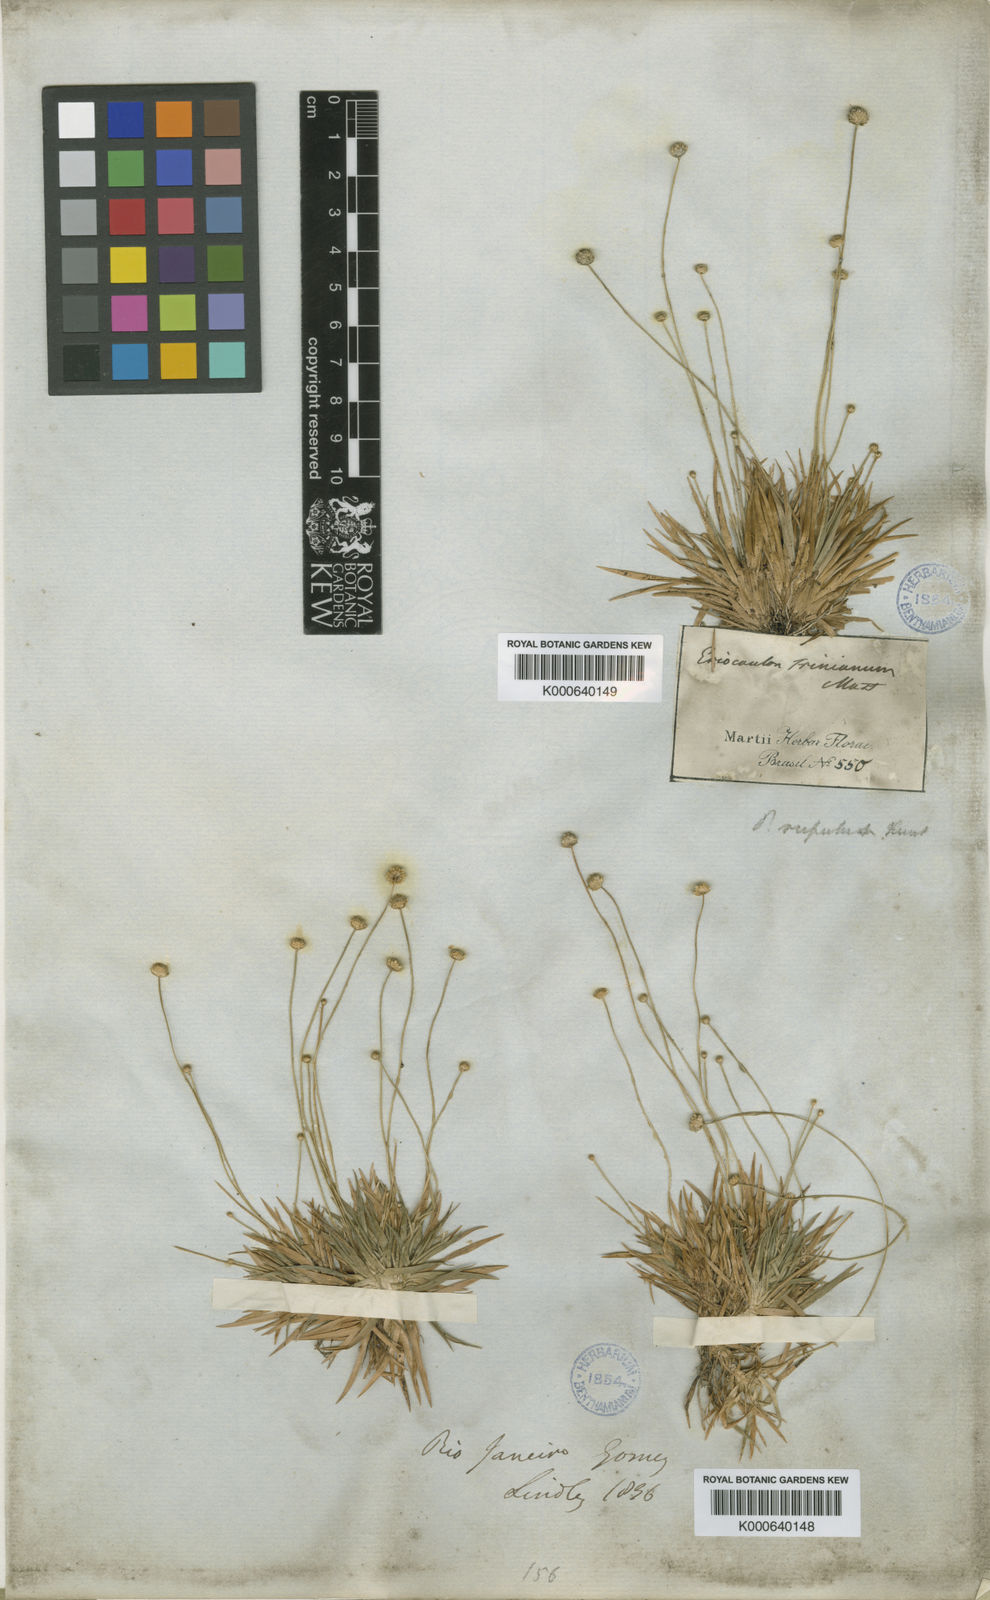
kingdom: Plantae
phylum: Tracheophyta
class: Liliopsida
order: Poales
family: Eriocaulaceae
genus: Leiothrix
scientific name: Leiothrix rufula
